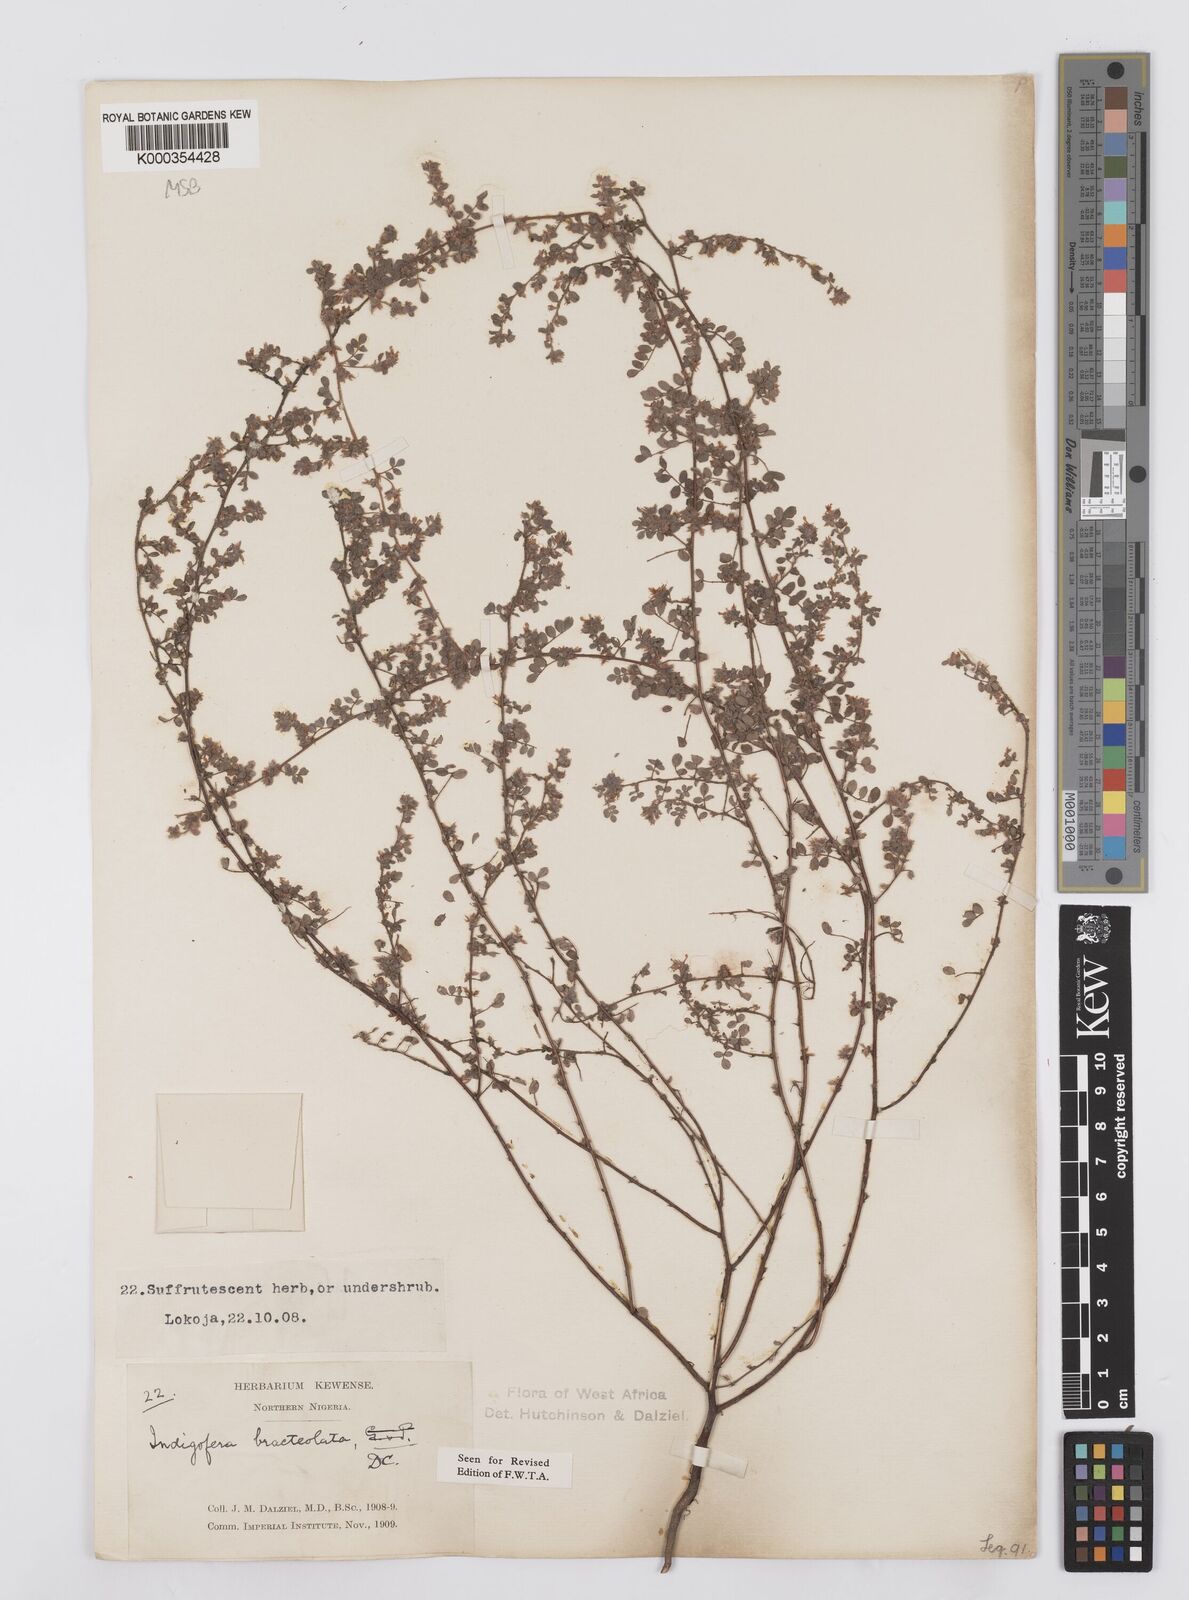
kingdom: Plantae
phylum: Tracheophyta
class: Magnoliopsida
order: Fabales
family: Fabaceae
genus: Indigofera
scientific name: Indigofera bracteolata
